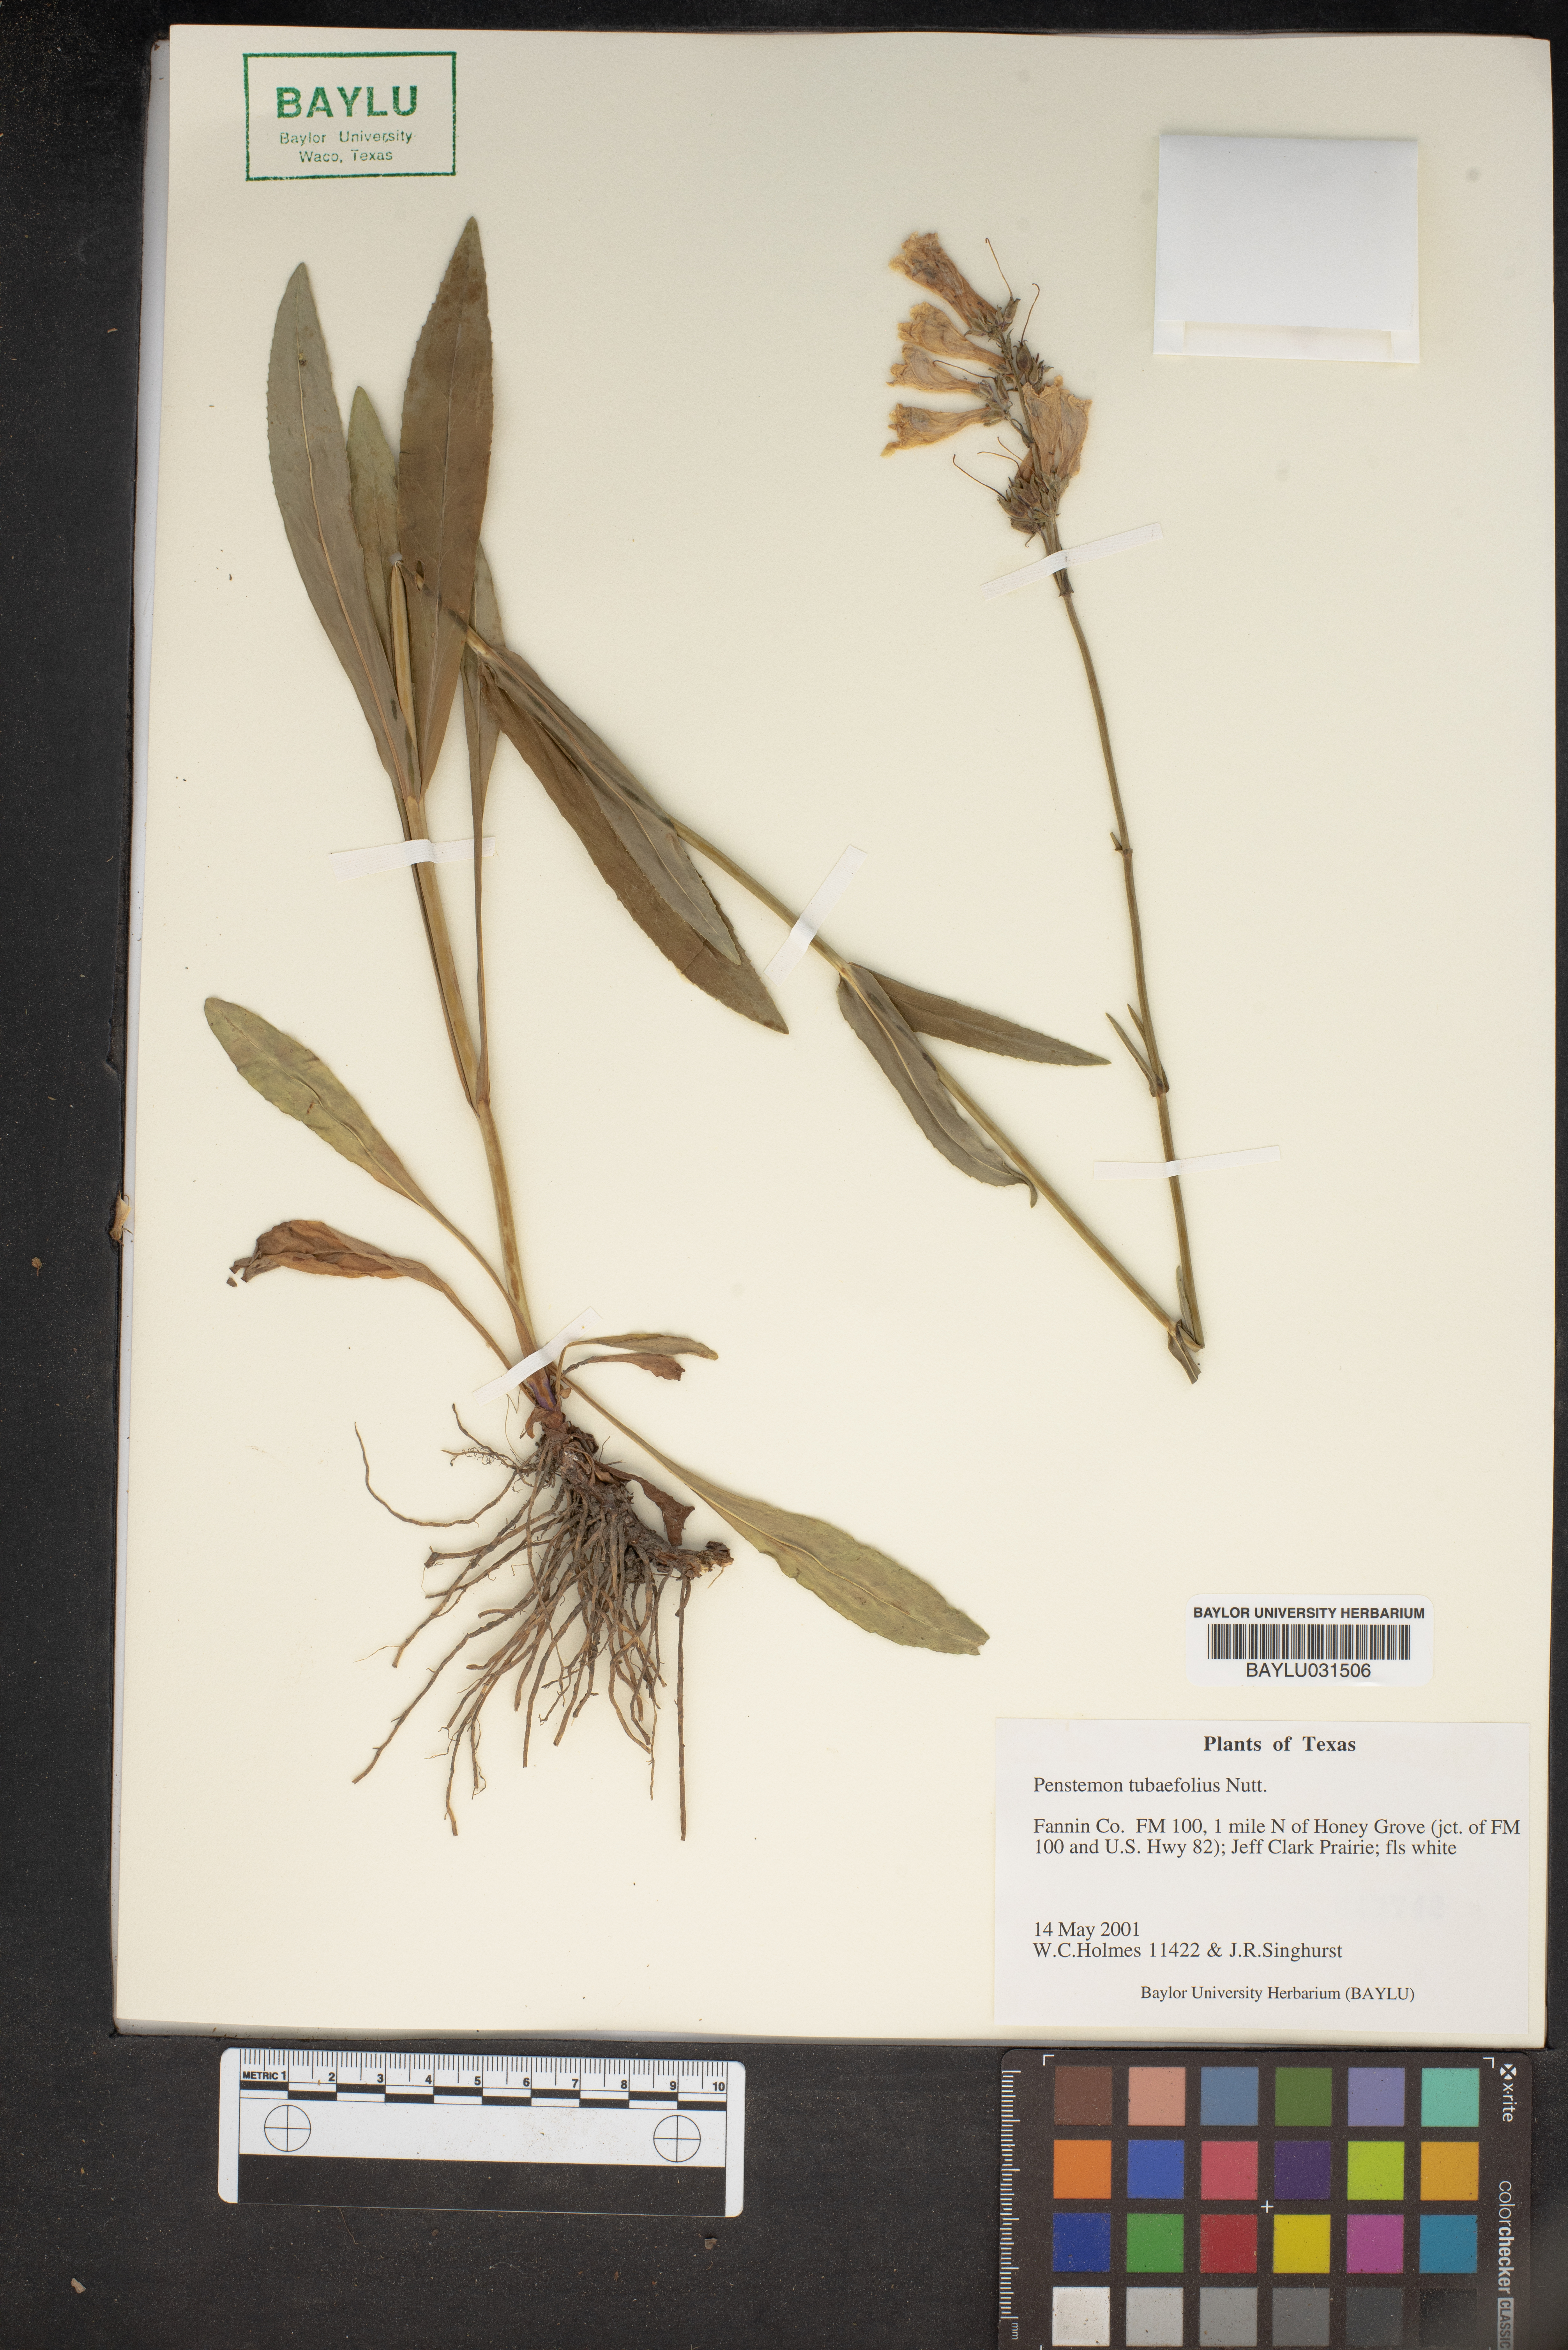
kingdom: Plantae
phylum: Tracheophyta
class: Magnoliopsida
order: Lamiales
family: Plantaginaceae
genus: Penstemon
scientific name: Penstemon tubaeflorus
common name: White wand beardtongue
